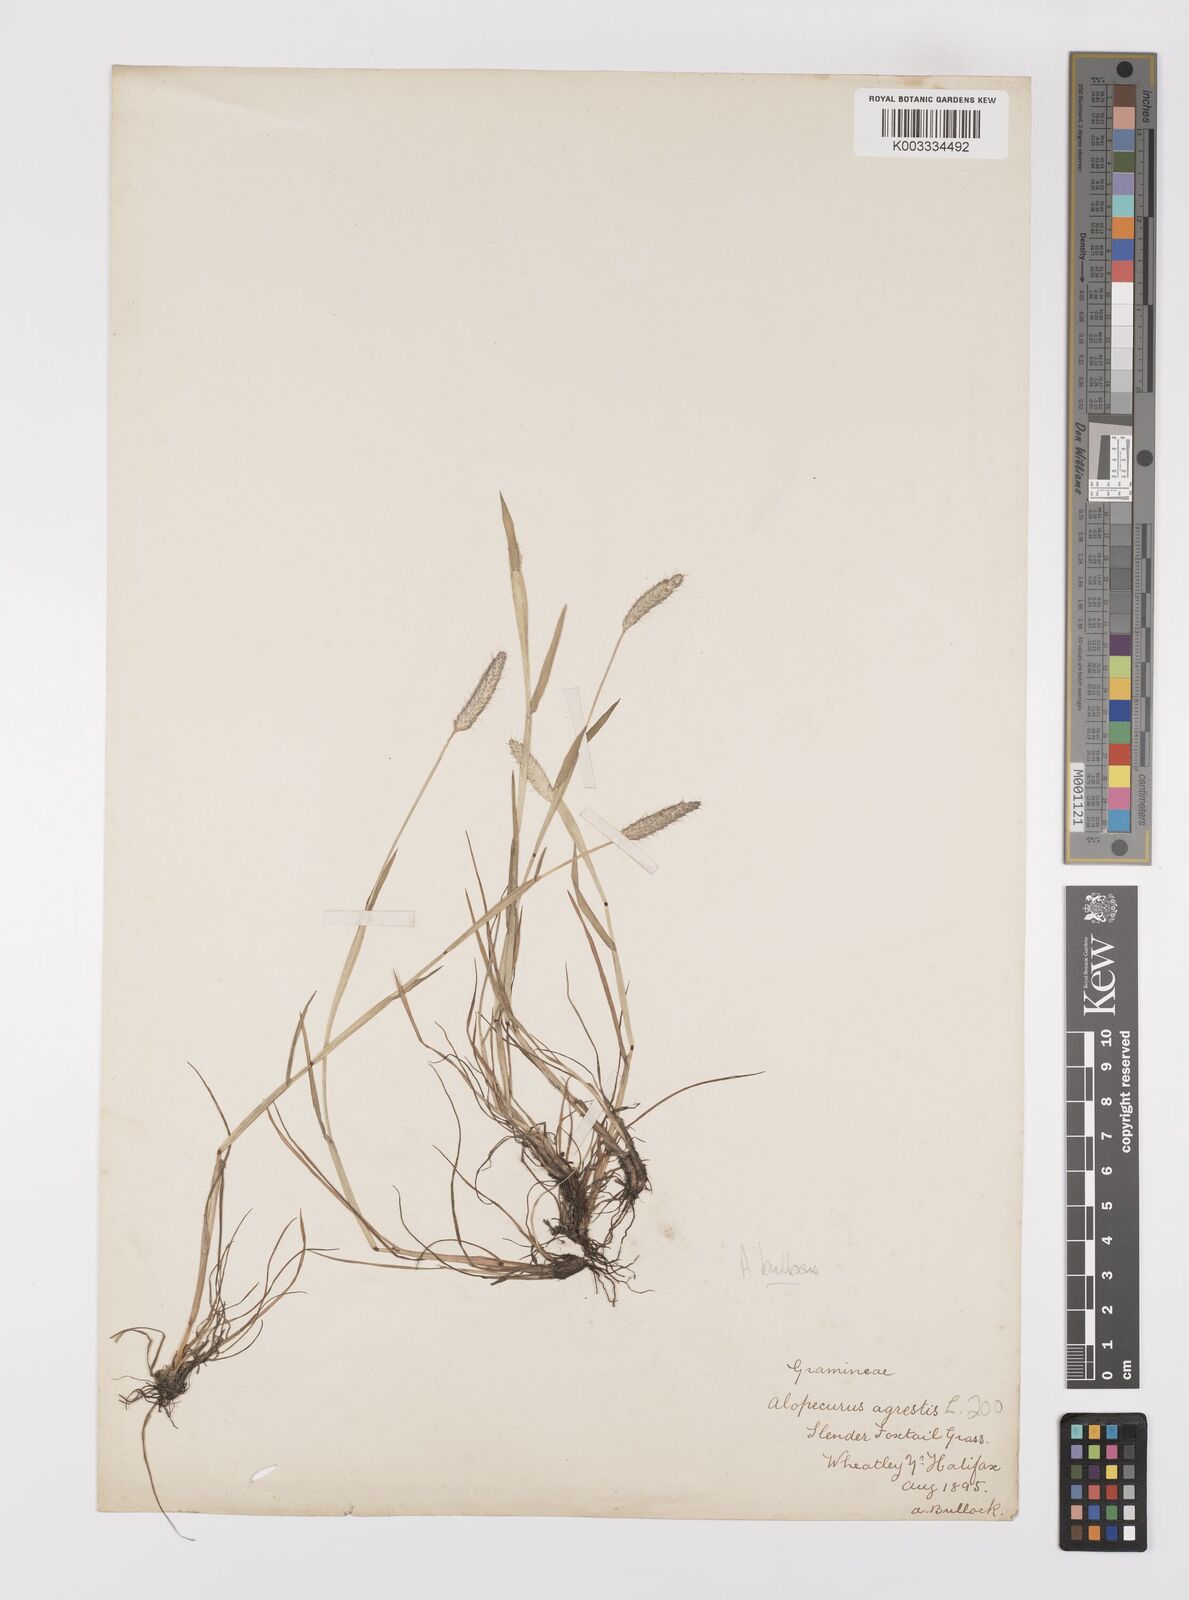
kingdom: Plantae
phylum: Tracheophyta
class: Liliopsida
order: Poales
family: Poaceae
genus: Alopecurus
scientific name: Alopecurus bulbosus
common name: Bulbous foxtail
